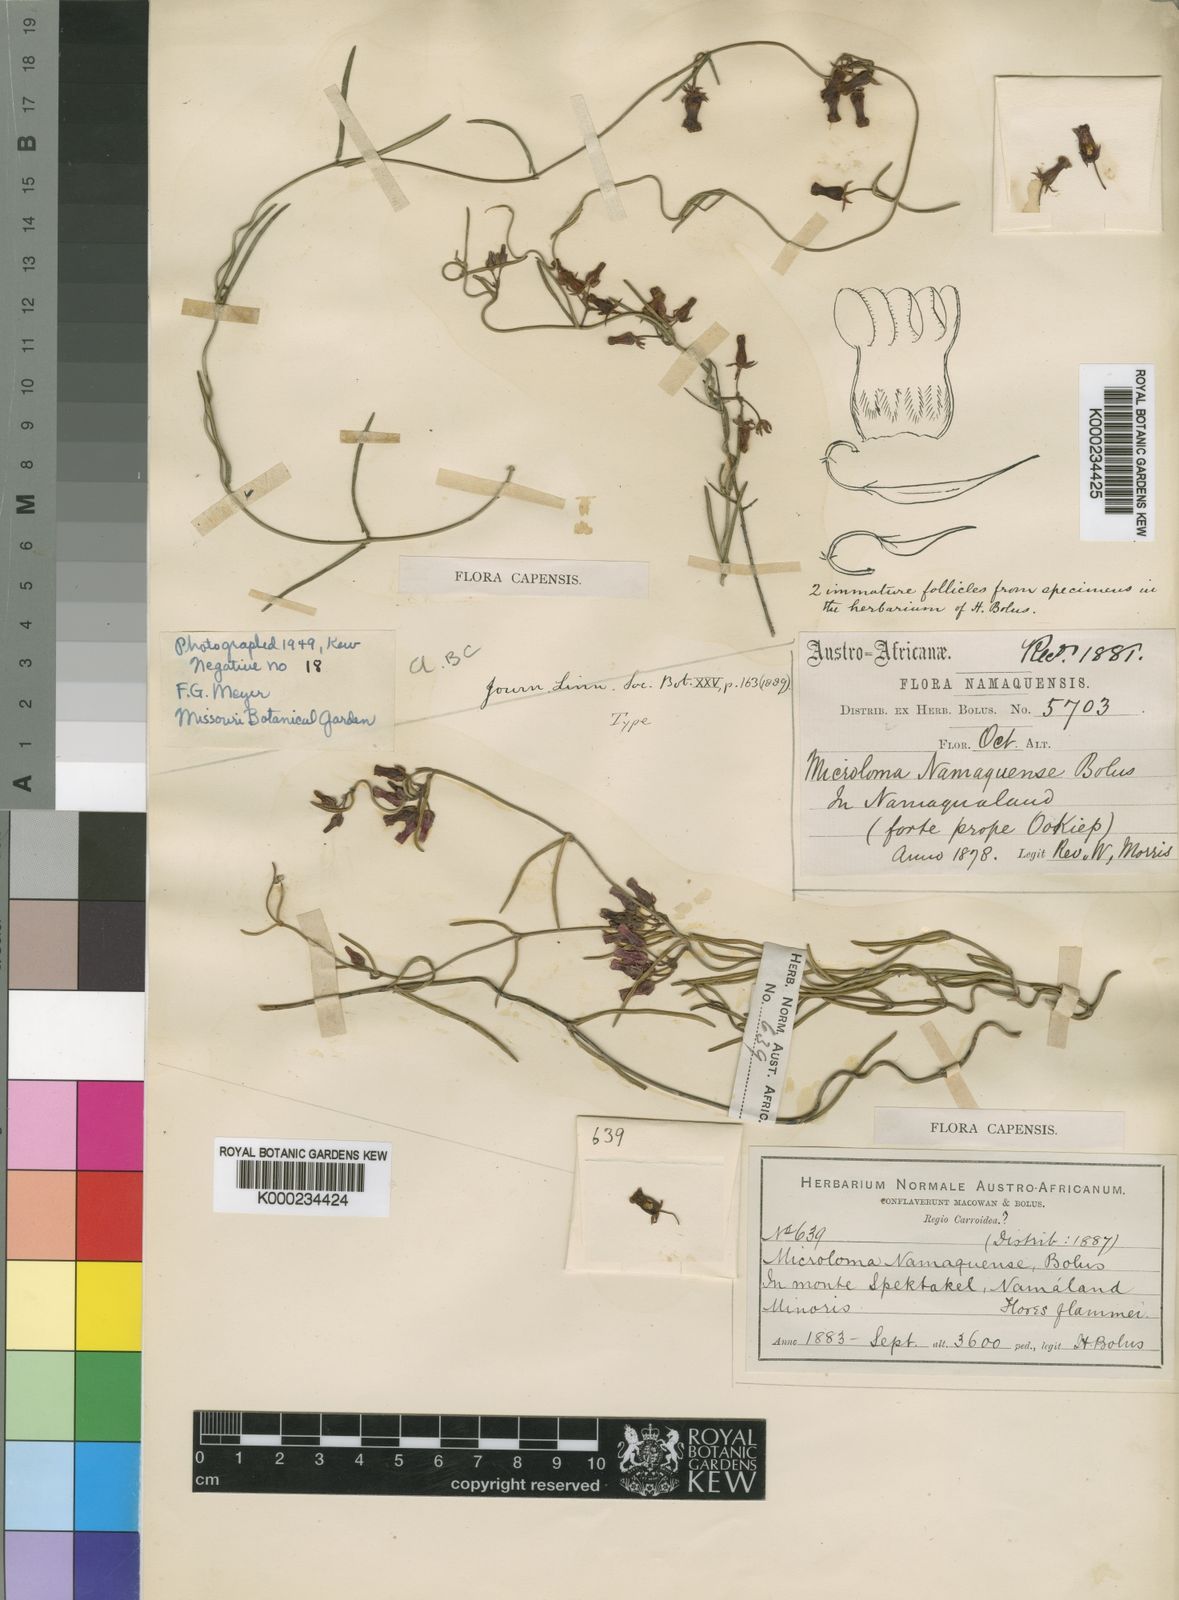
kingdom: Plantae
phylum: Tracheophyta
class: Magnoliopsida
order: Gentianales
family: Apocynaceae
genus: Microloma
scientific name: Microloma namaquense
